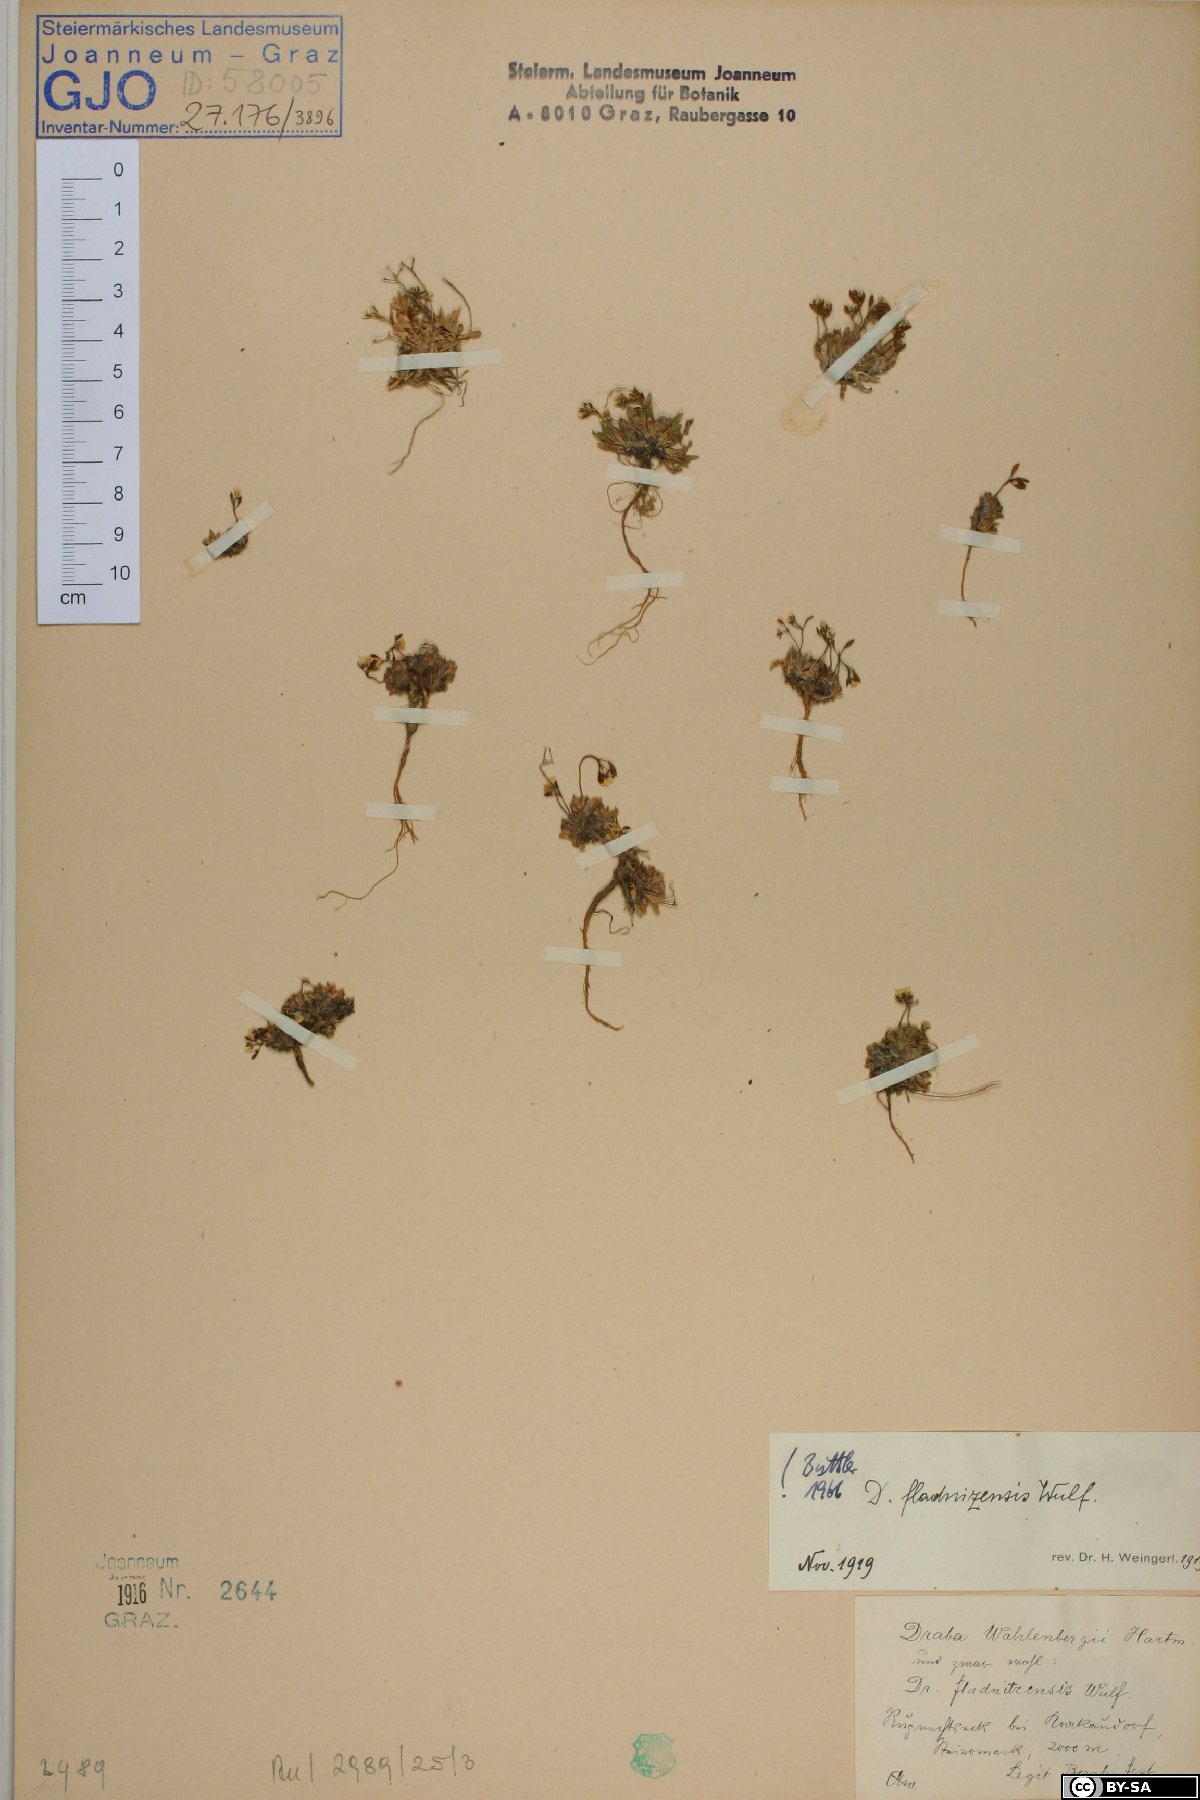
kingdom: Plantae
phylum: Tracheophyta
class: Magnoliopsida
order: Brassicales
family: Brassicaceae
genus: Draba
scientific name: Draba fladnizensis
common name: Austrian draba
